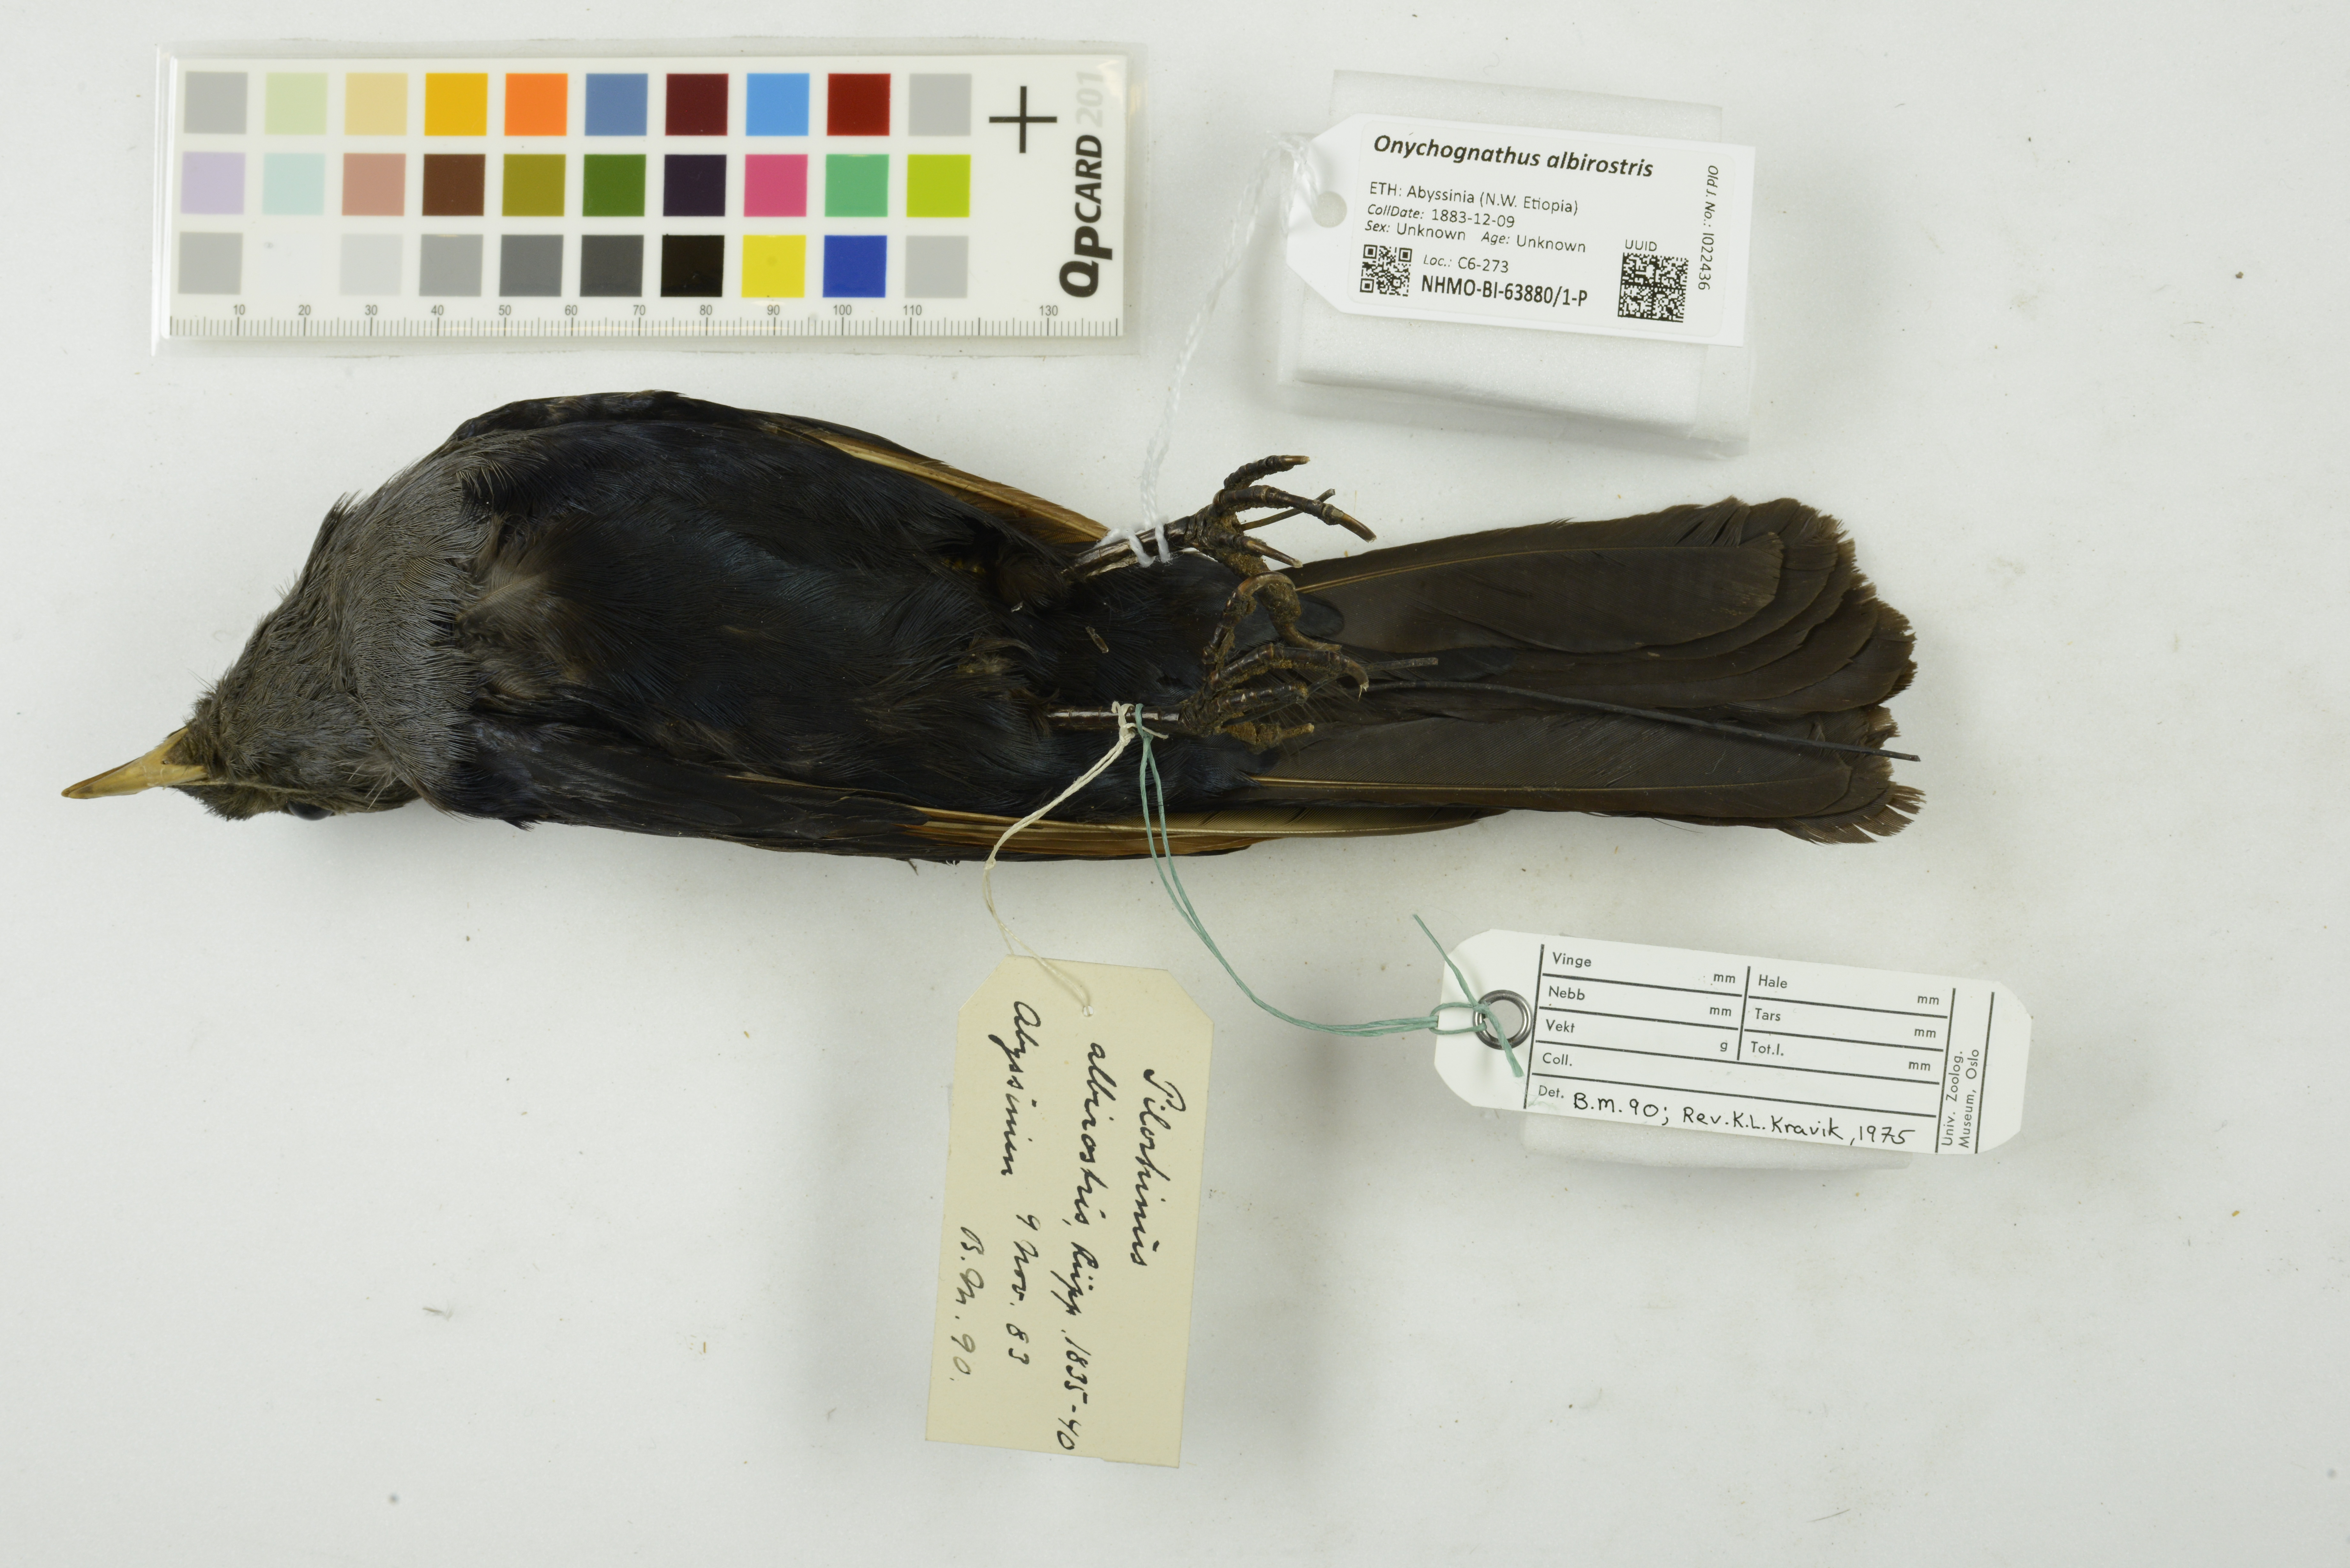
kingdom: Animalia
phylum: Chordata
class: Aves
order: Passeriformes
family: Sturnidae
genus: Onychognathus
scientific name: Onychognathus albirostris
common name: White-billed starling
